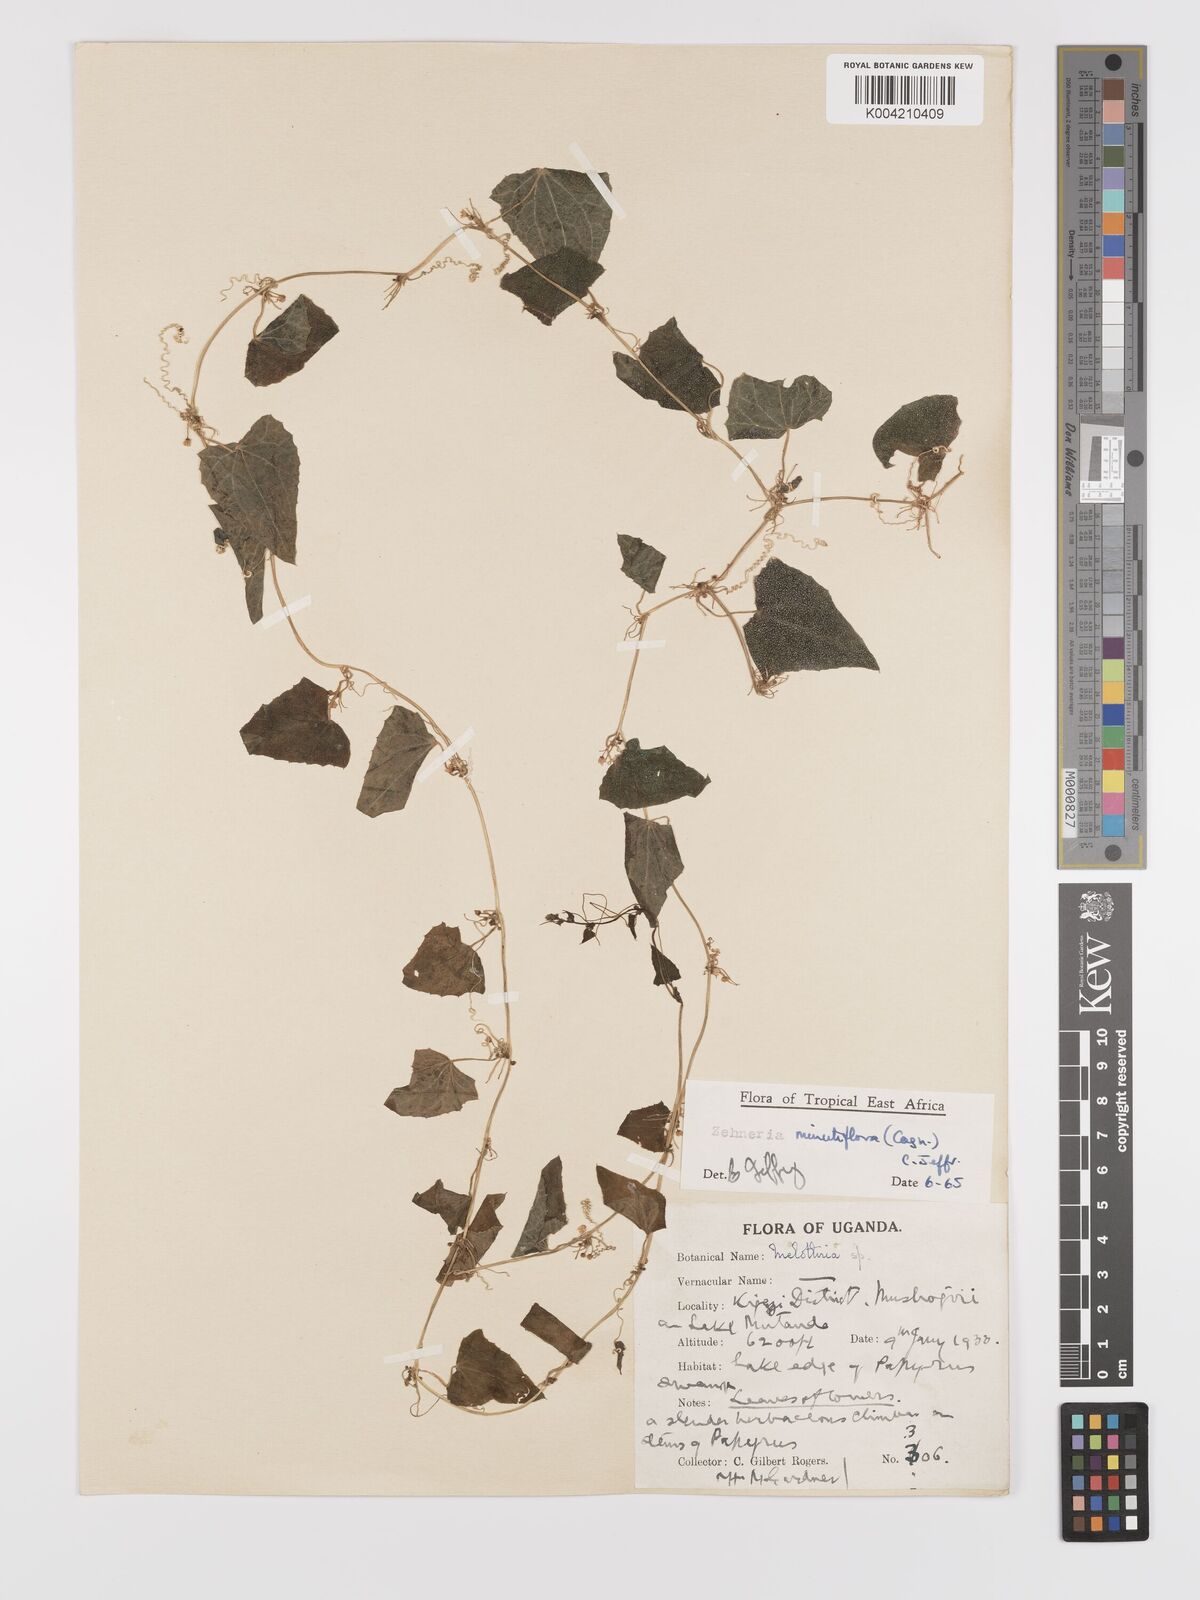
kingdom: Plantae
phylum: Tracheophyta
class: Magnoliopsida
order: Cucurbitales
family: Cucurbitaceae
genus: Zehneria
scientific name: Zehneria minutiflora
